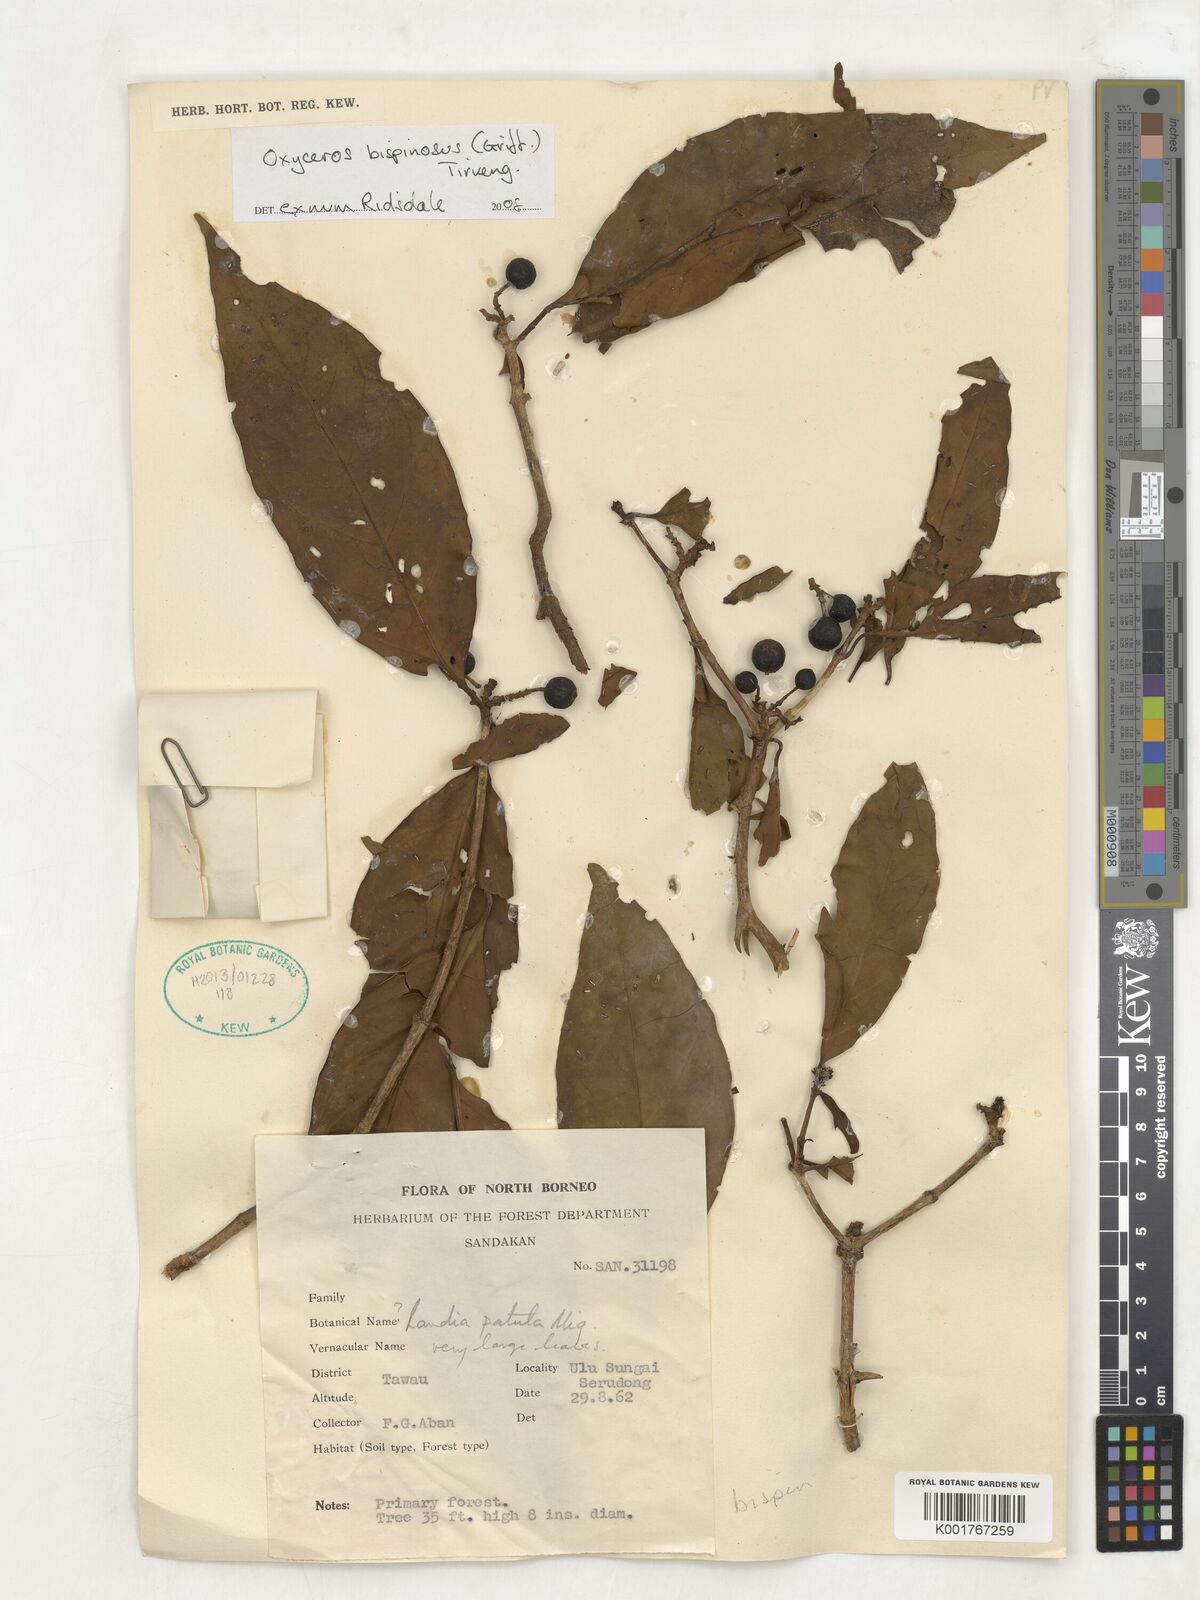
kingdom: Plantae
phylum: Tracheophyta
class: Magnoliopsida
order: Gentianales
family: Rubiaceae
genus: Oxyceros
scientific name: Oxyceros bispinosus
